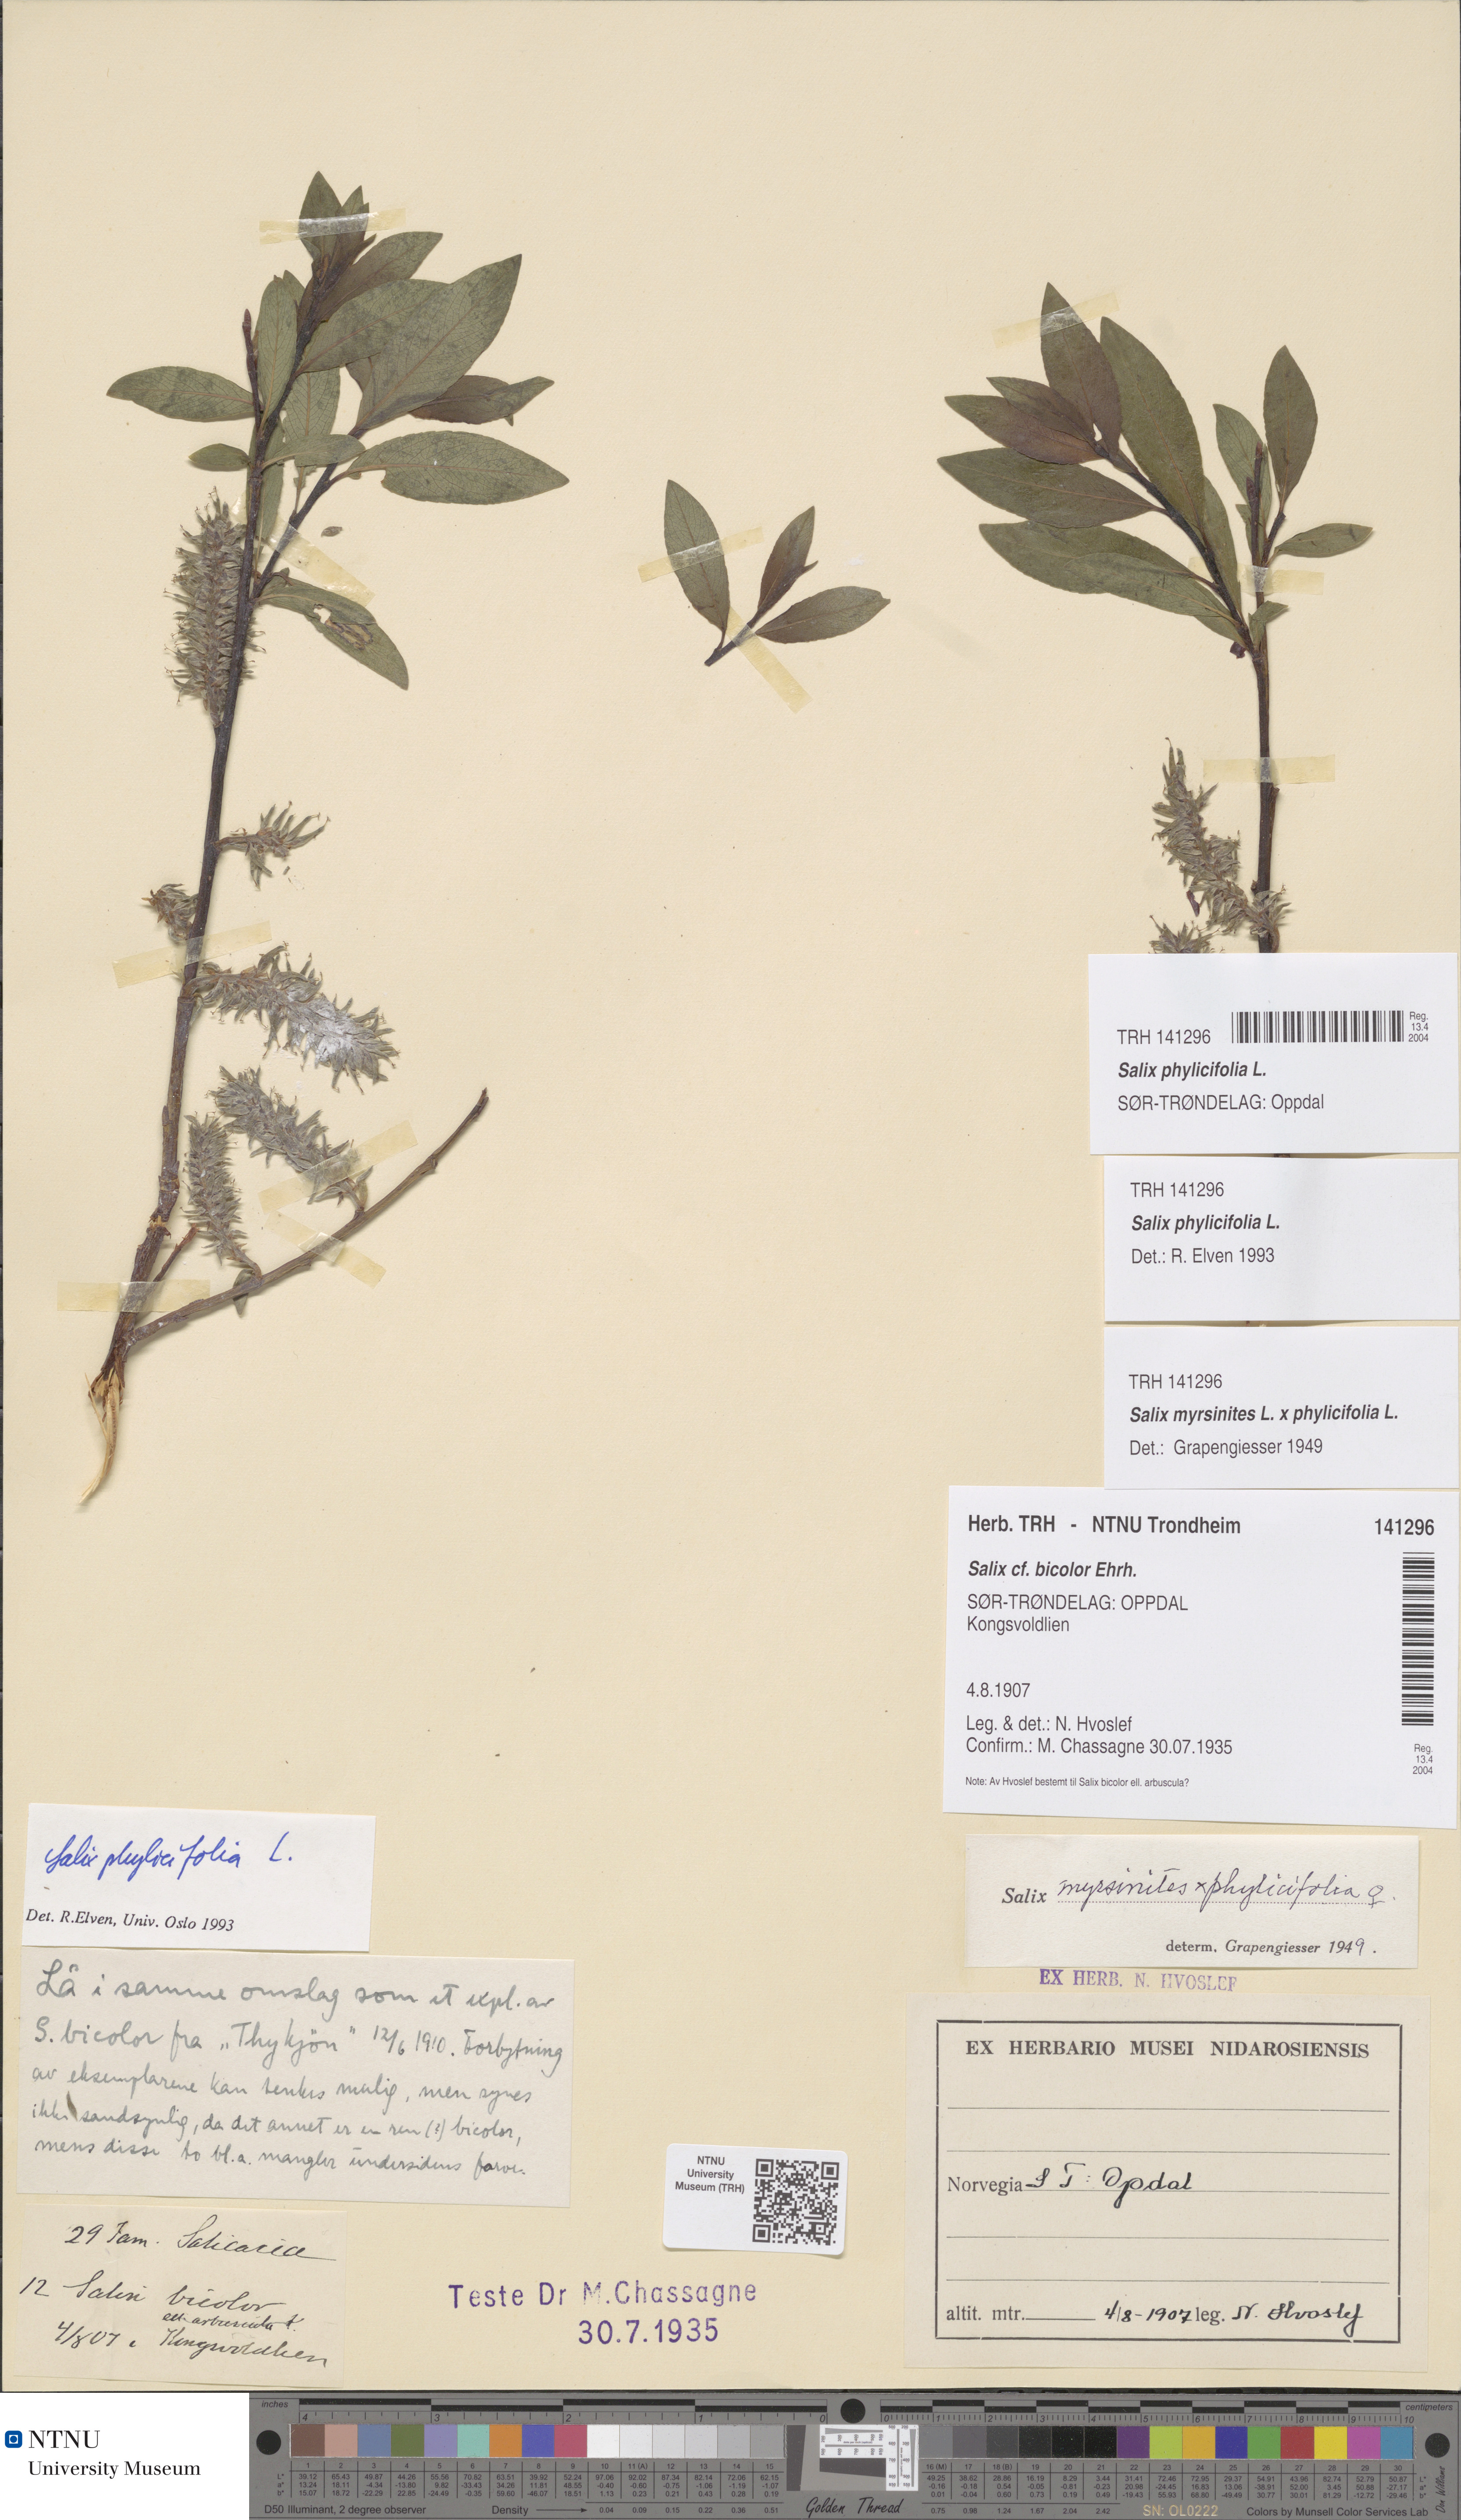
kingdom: Plantae
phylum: Tracheophyta
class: Magnoliopsida
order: Malpighiales
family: Salicaceae
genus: Salix
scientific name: Salix phylicifolia
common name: Tea-leaved willow
